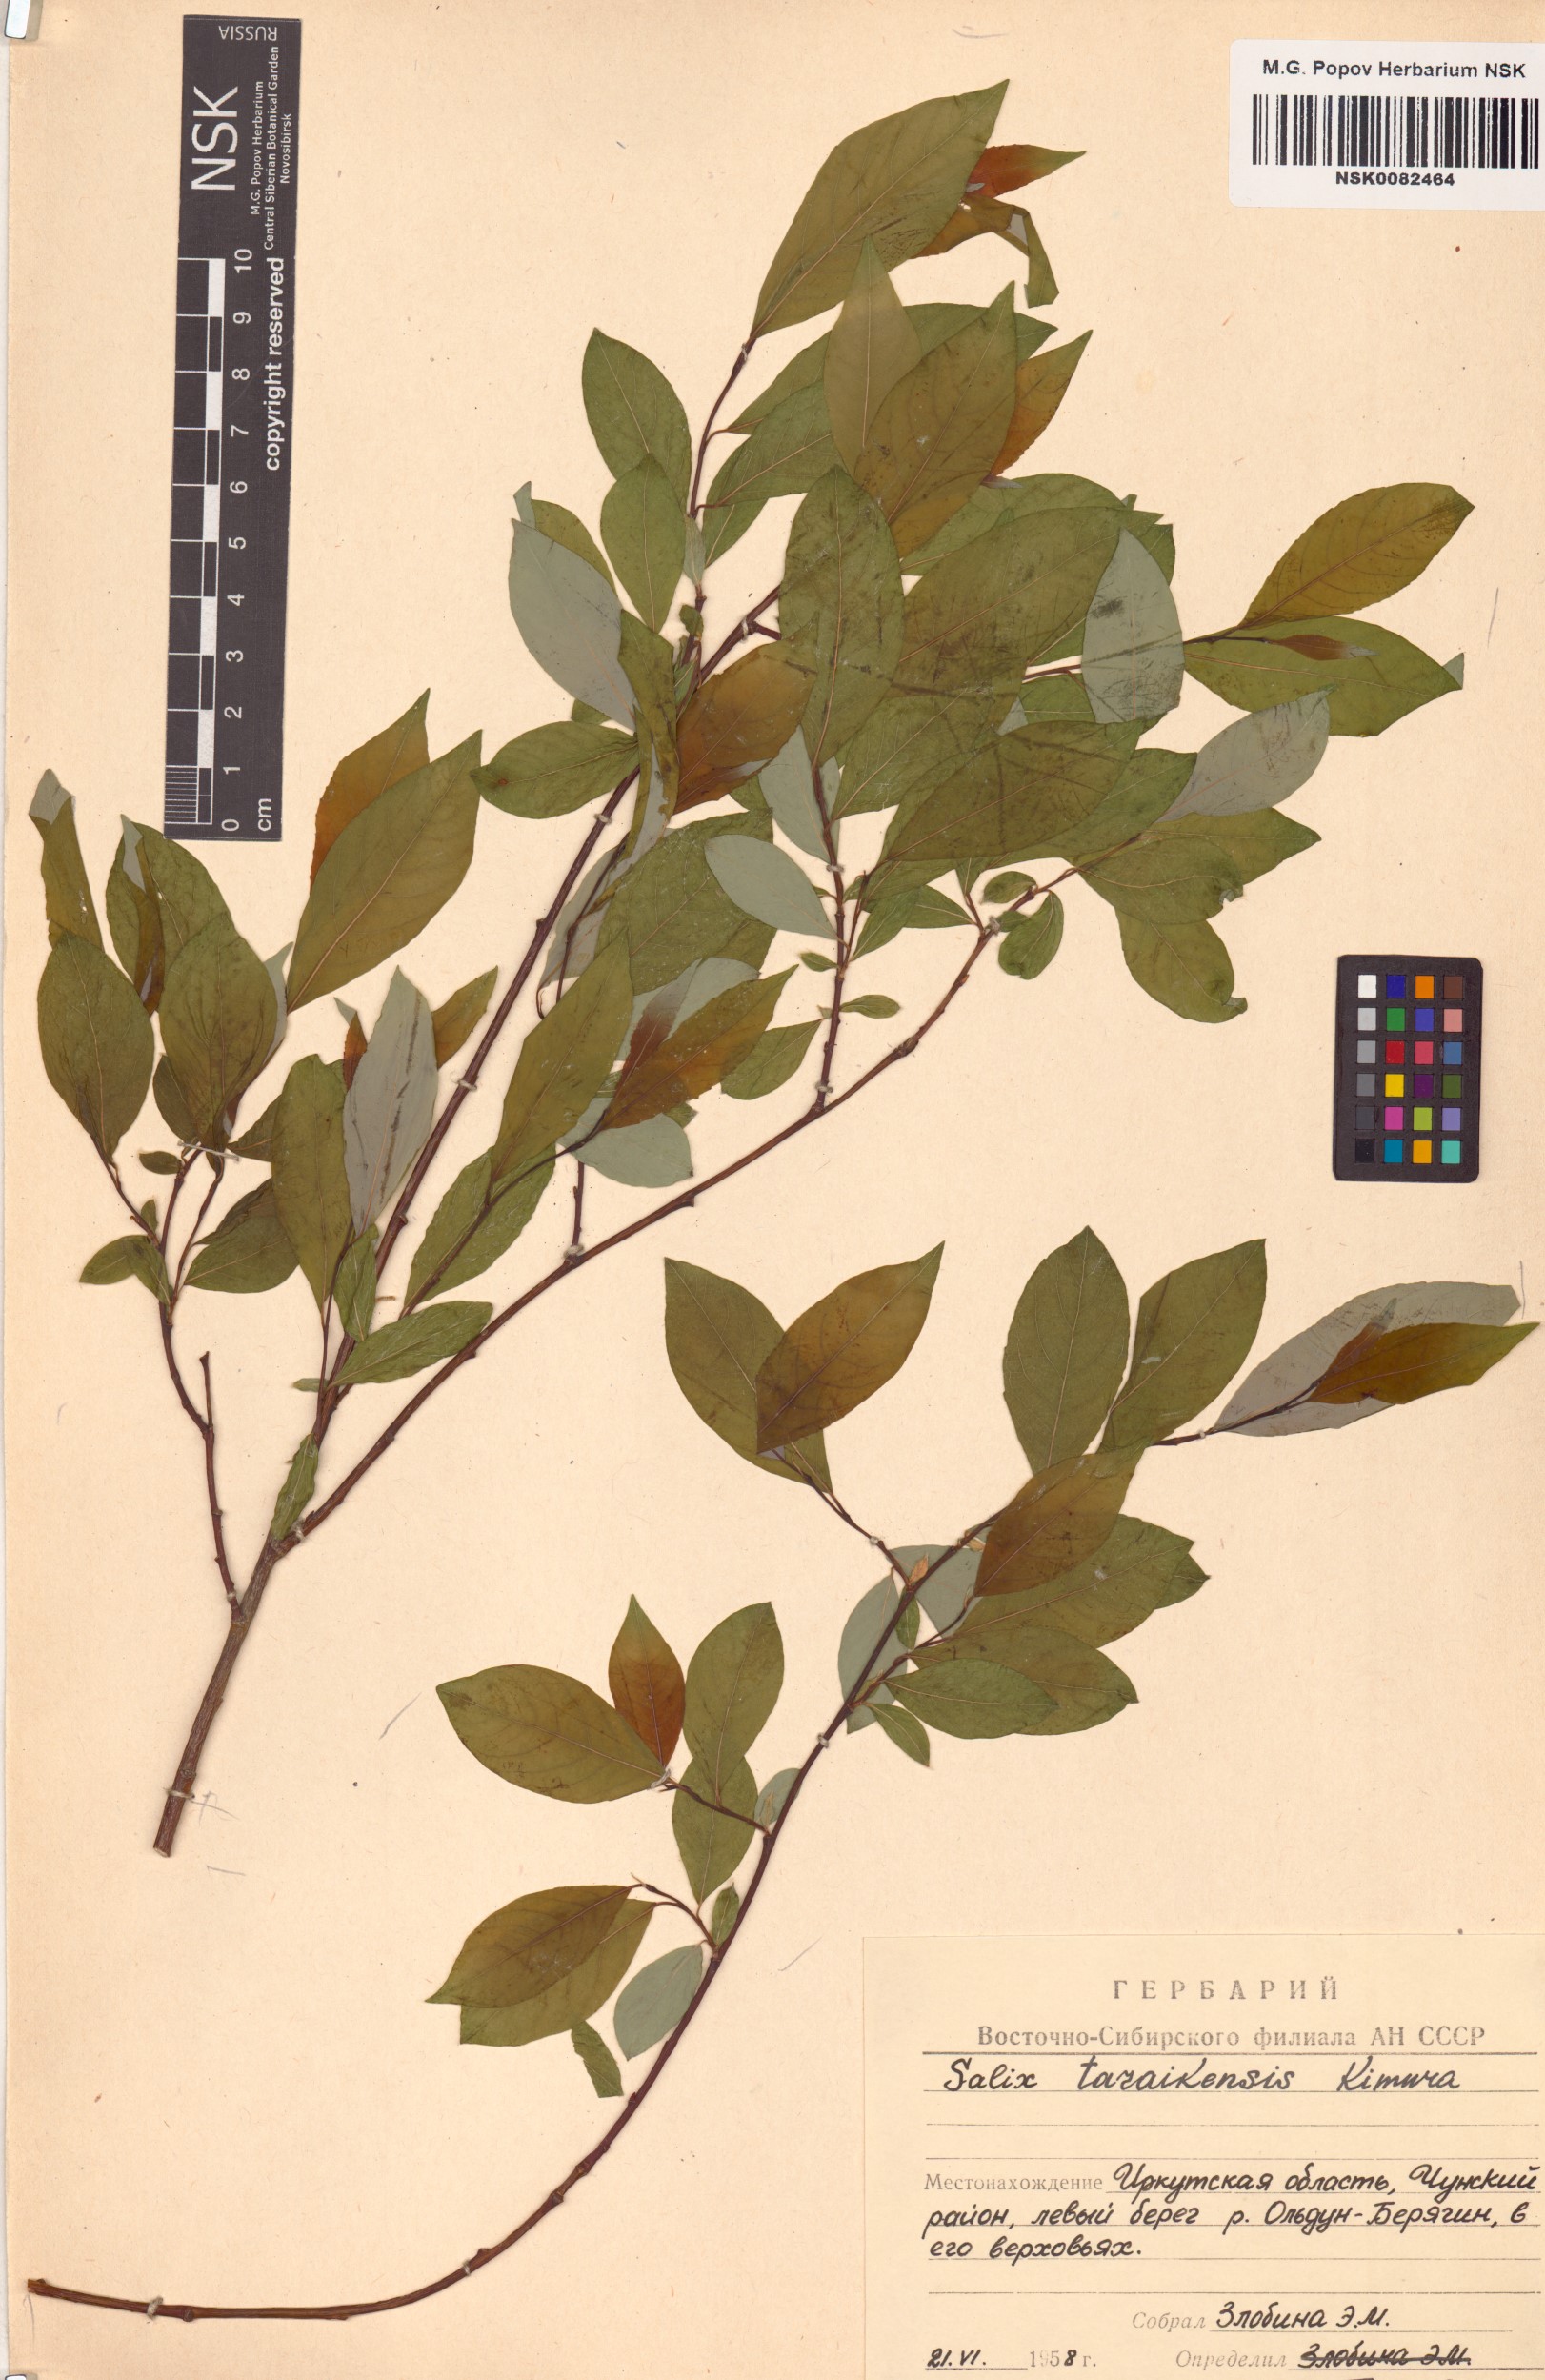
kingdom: Plantae
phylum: Tracheophyta
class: Magnoliopsida
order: Malpighiales
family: Salicaceae
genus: Salix
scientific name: Salix taraikensis
